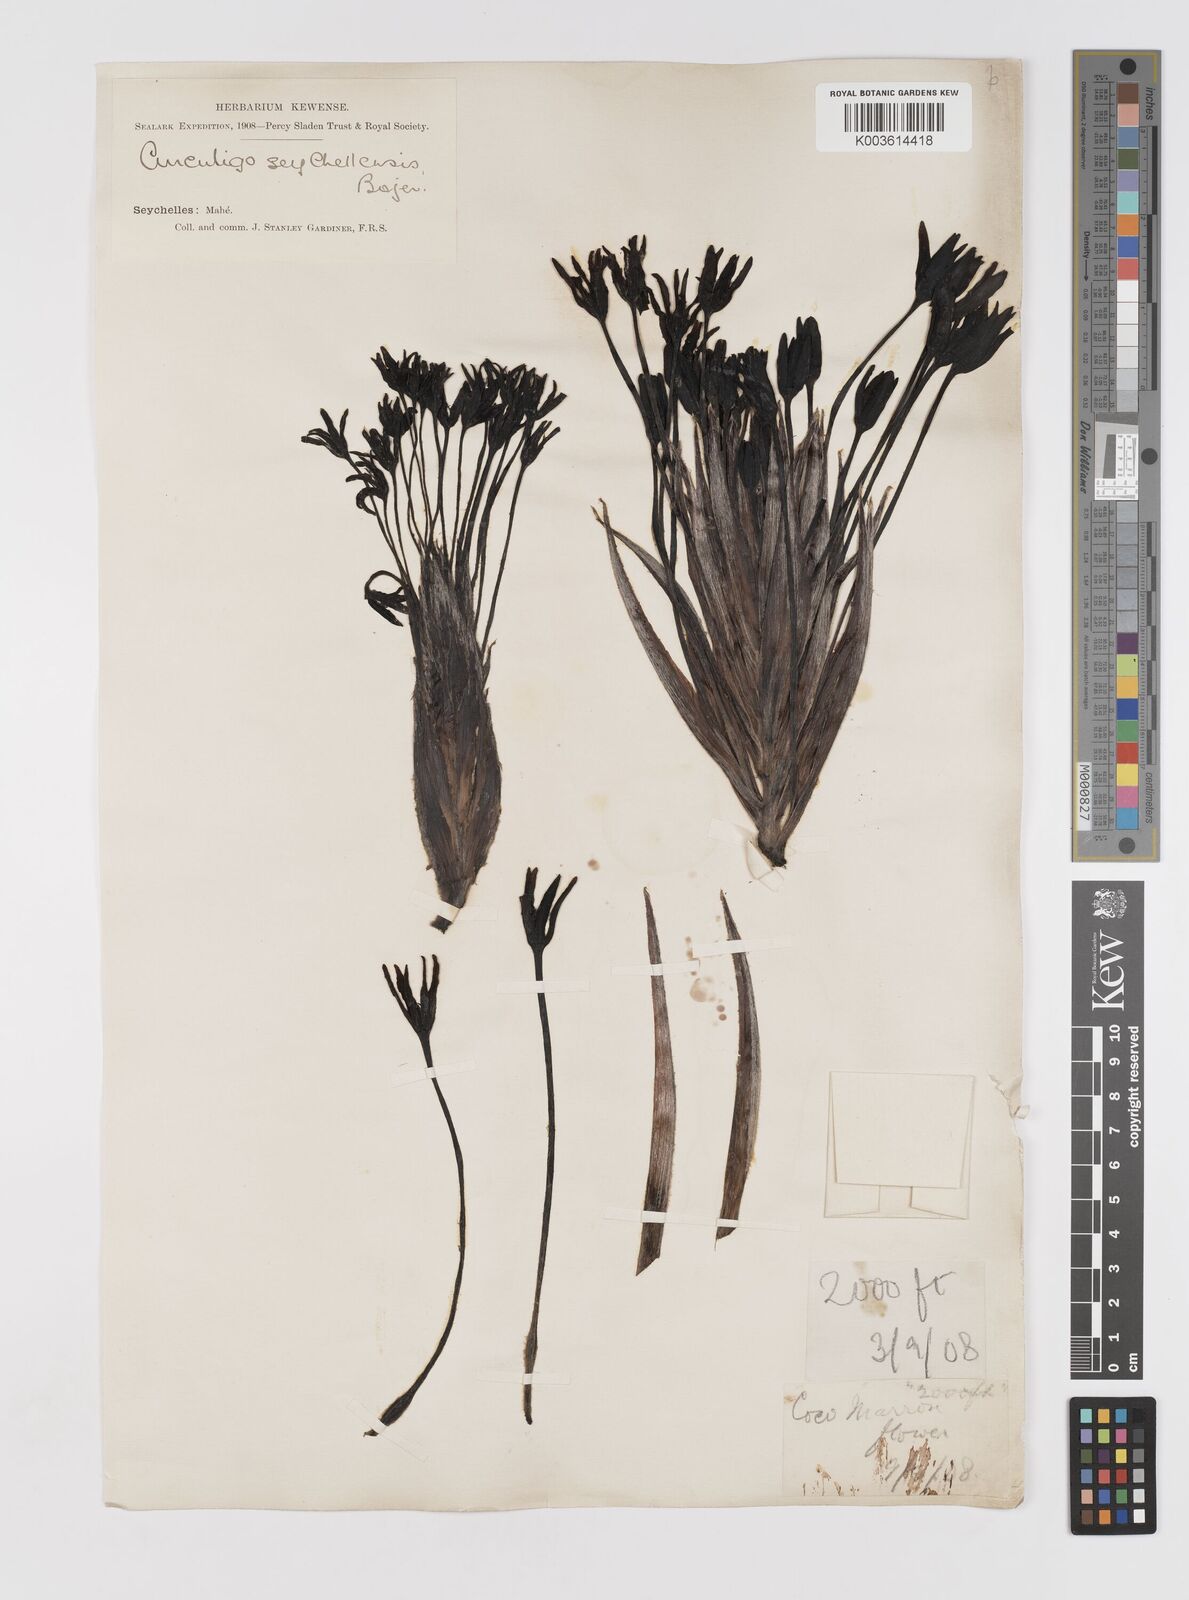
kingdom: Plantae
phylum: Tracheophyta
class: Liliopsida
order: Asparagales
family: Hypoxidaceae
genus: Curculigo
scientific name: Curculigo seychellensis
